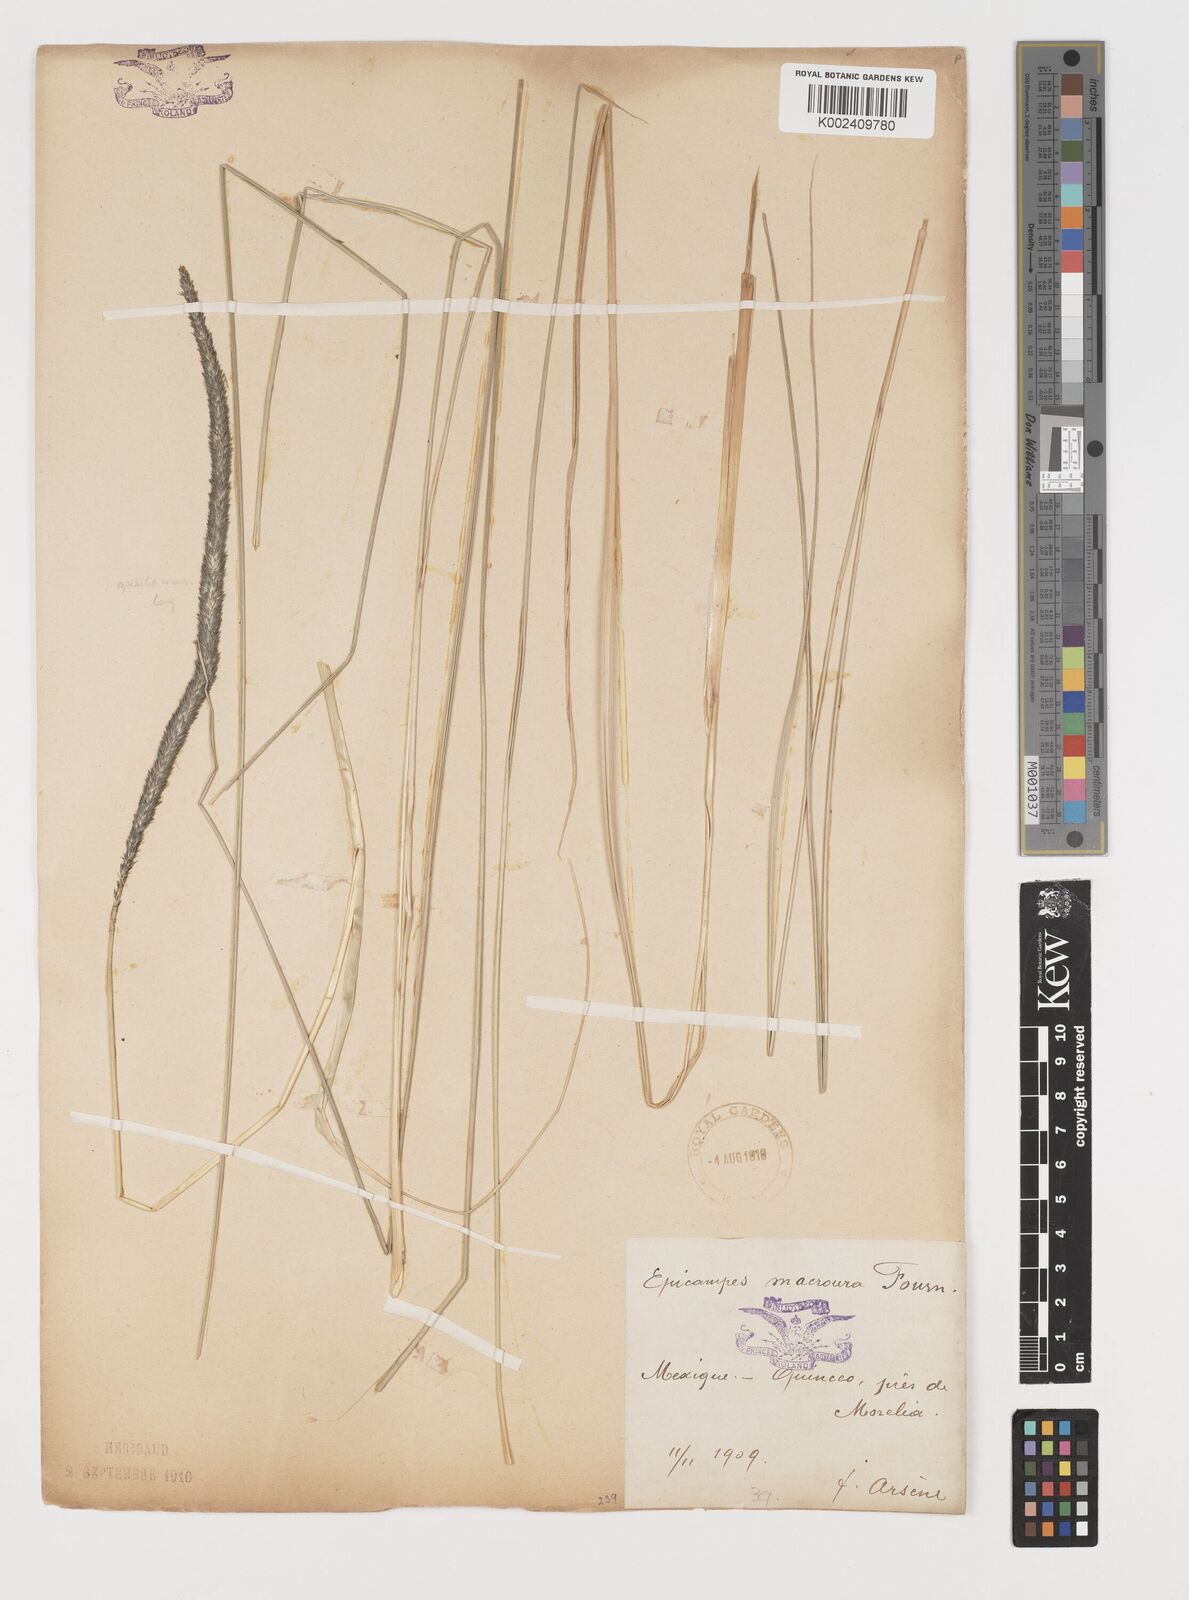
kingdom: Plantae
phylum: Tracheophyta
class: Liliopsida
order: Poales
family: Poaceae
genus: Muhlenbergia
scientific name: Muhlenbergia macroura
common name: Mexican broomroot
